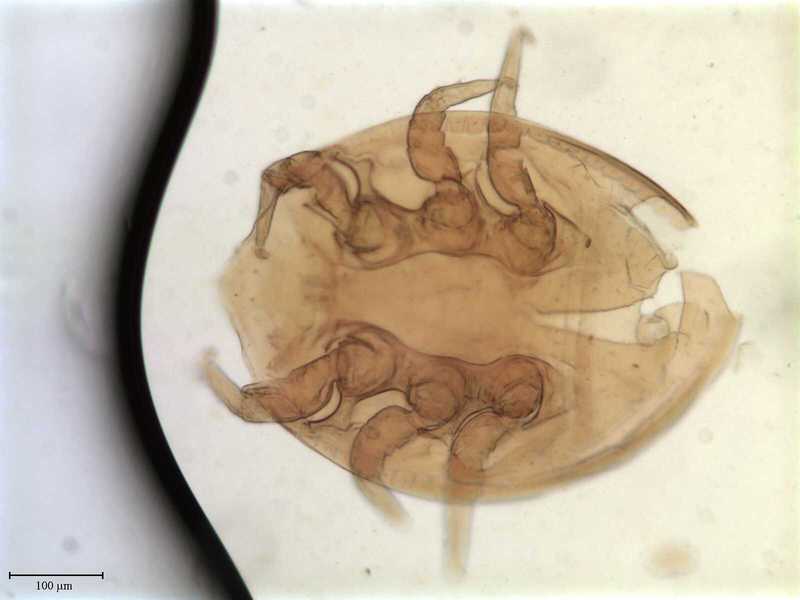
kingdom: Animalia
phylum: Arthropoda
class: Arachnida
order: Mesostigmata
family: Uropodidae
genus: Uropoda
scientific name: Uropoda
